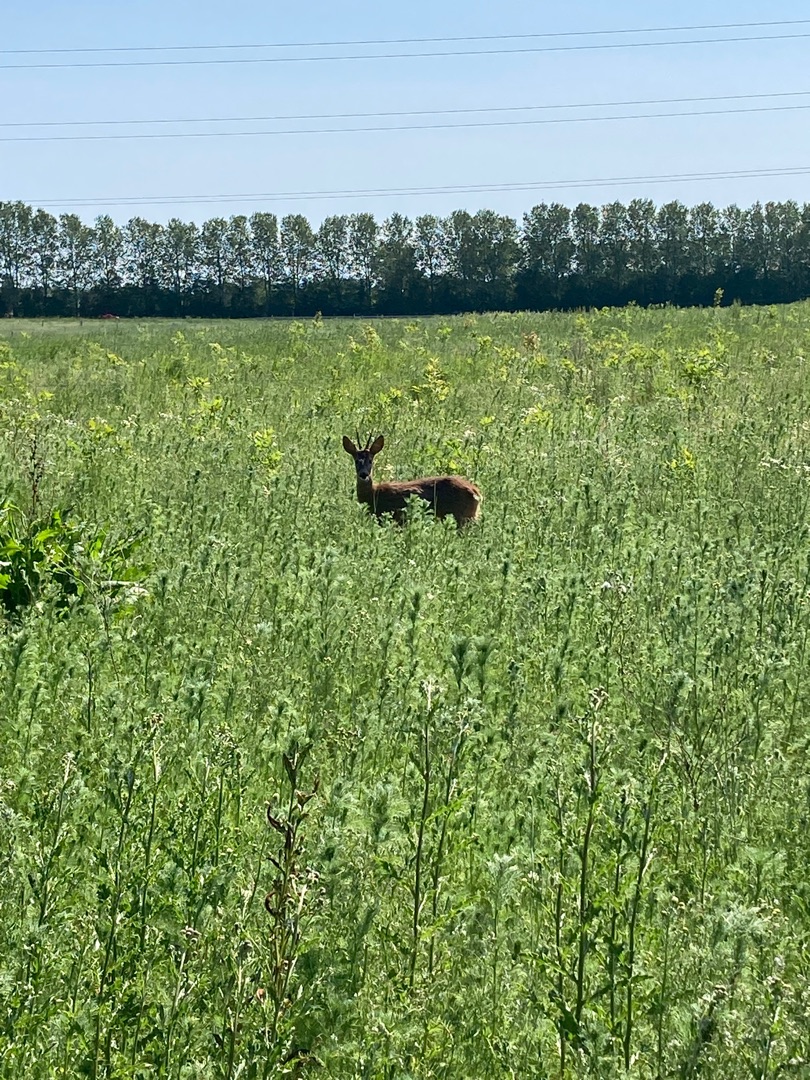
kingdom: Animalia
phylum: Chordata
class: Mammalia
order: Artiodactyla
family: Cervidae
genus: Capreolus
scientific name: Capreolus capreolus
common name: Rådyr
